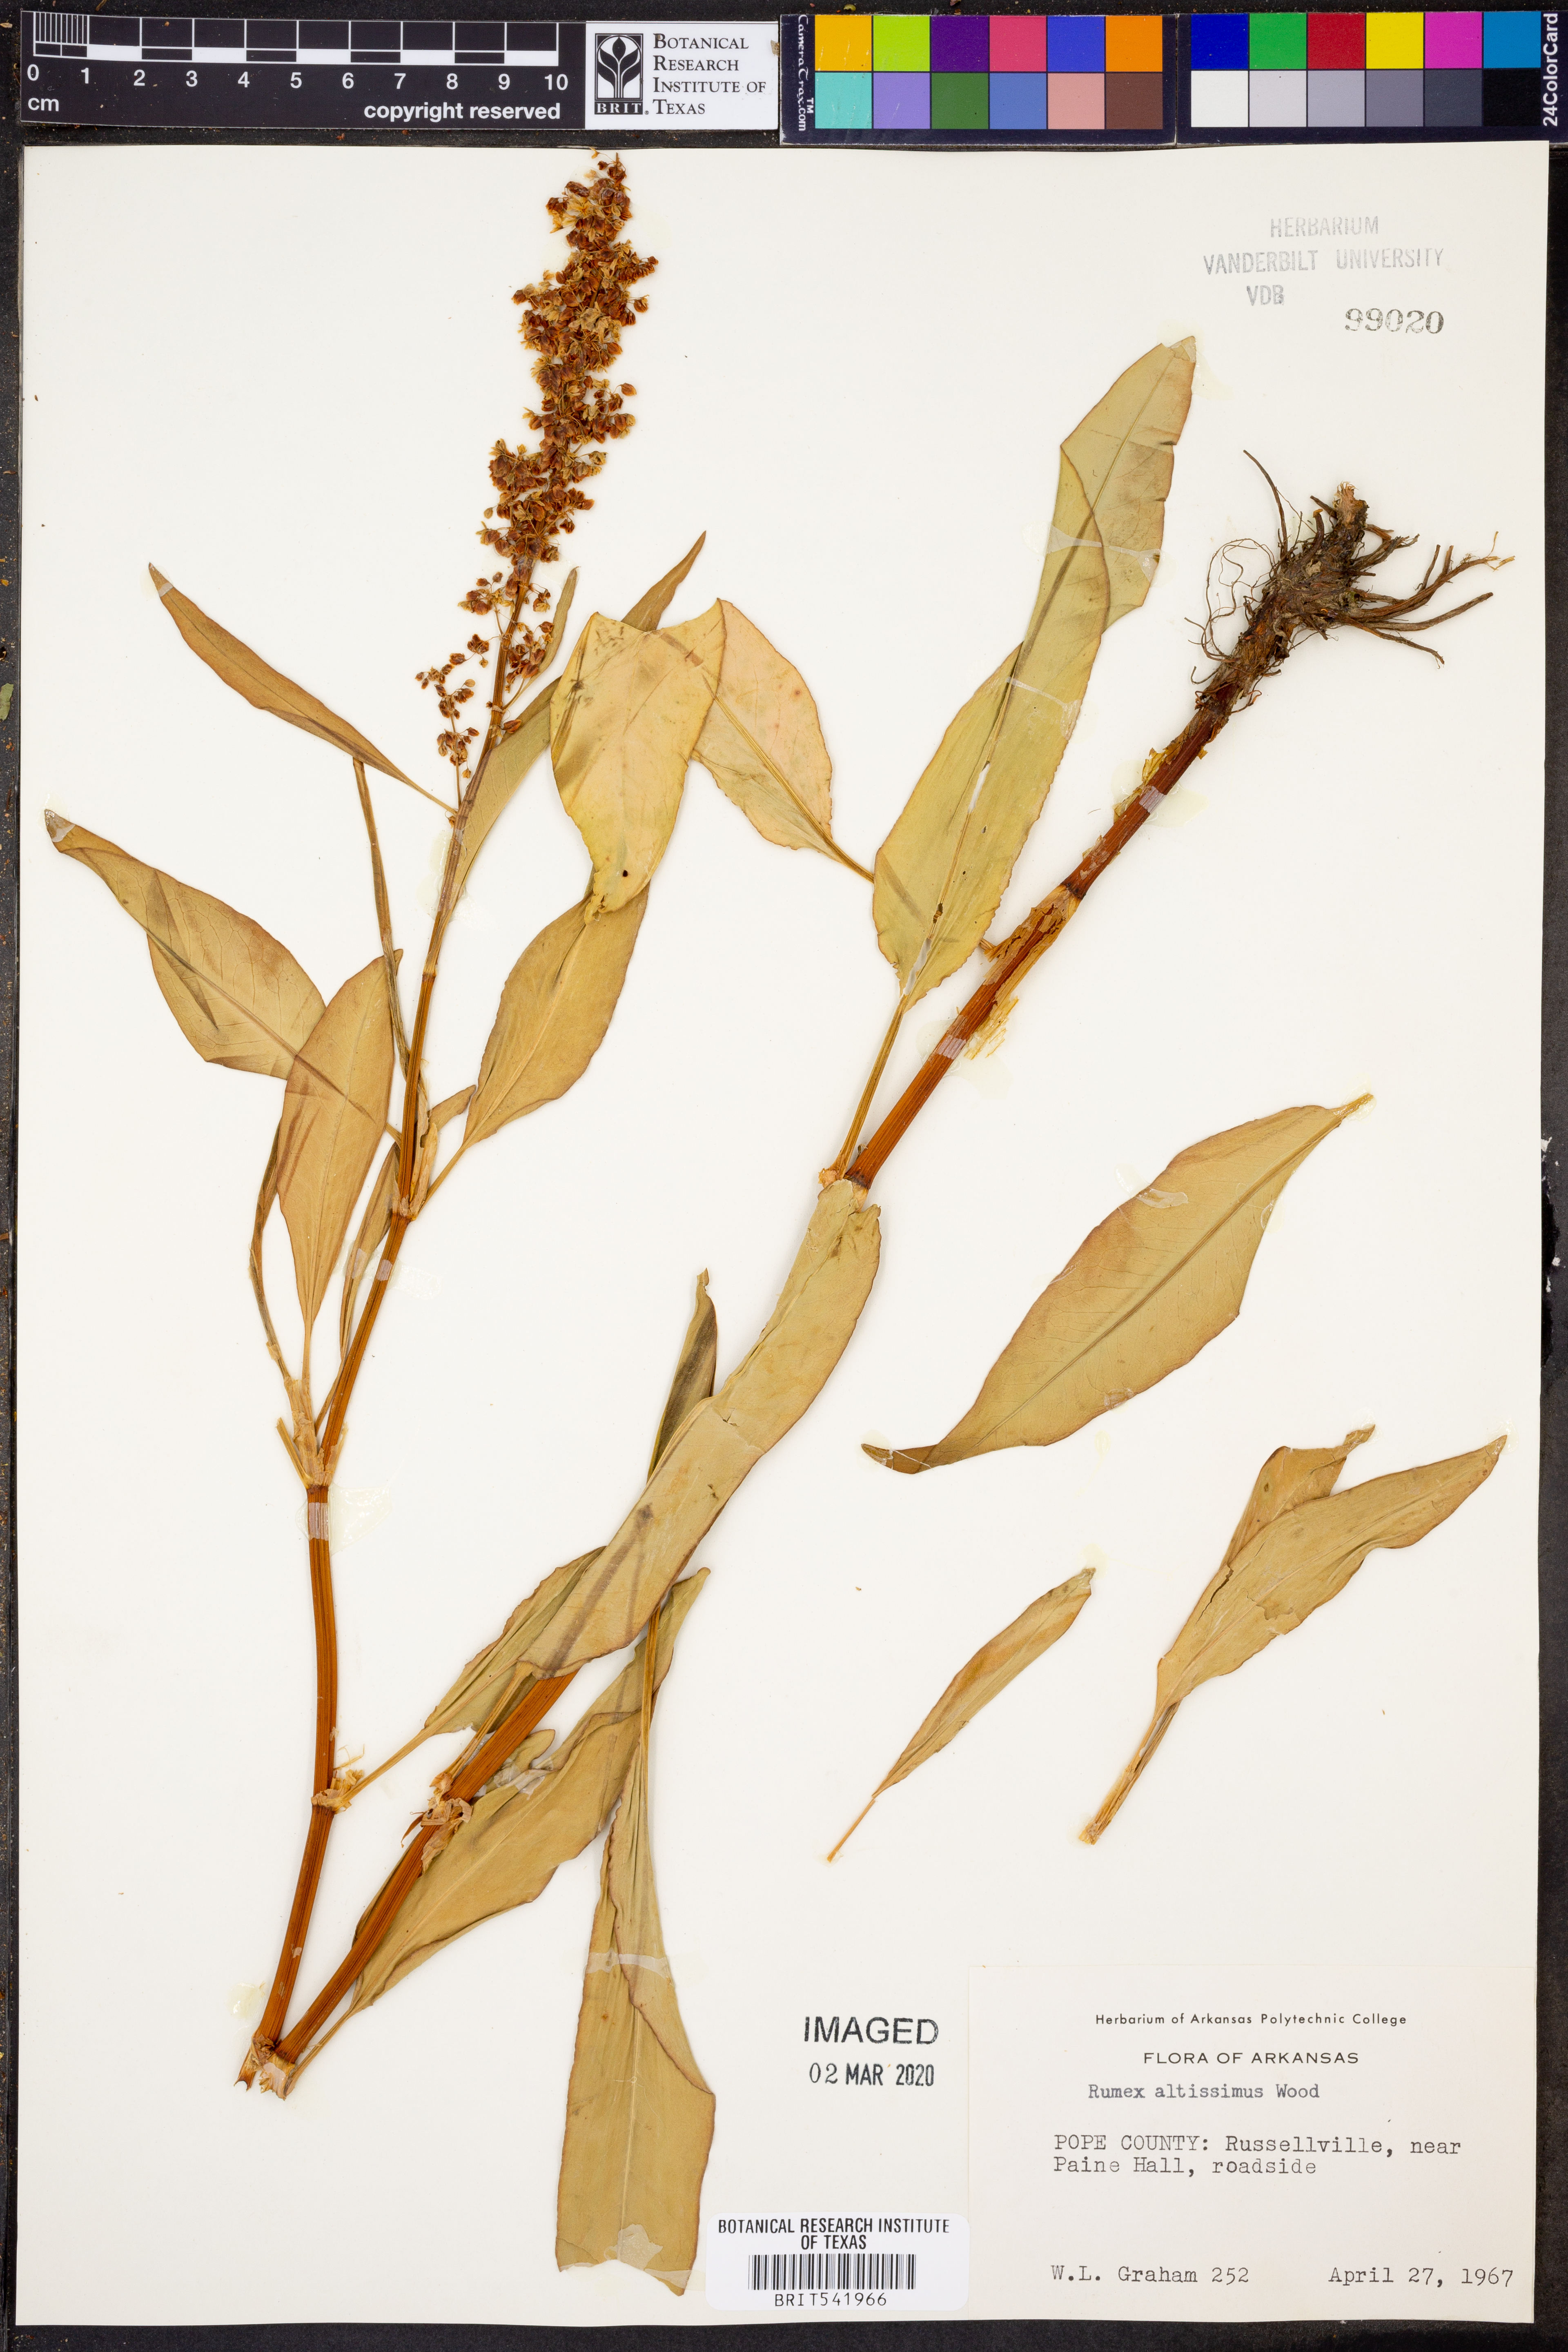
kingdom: Plantae
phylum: Tracheophyta
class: Magnoliopsida
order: Caryophyllales
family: Polygonaceae
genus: Rumex
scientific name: Rumex altissimus
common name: Smooth dock
